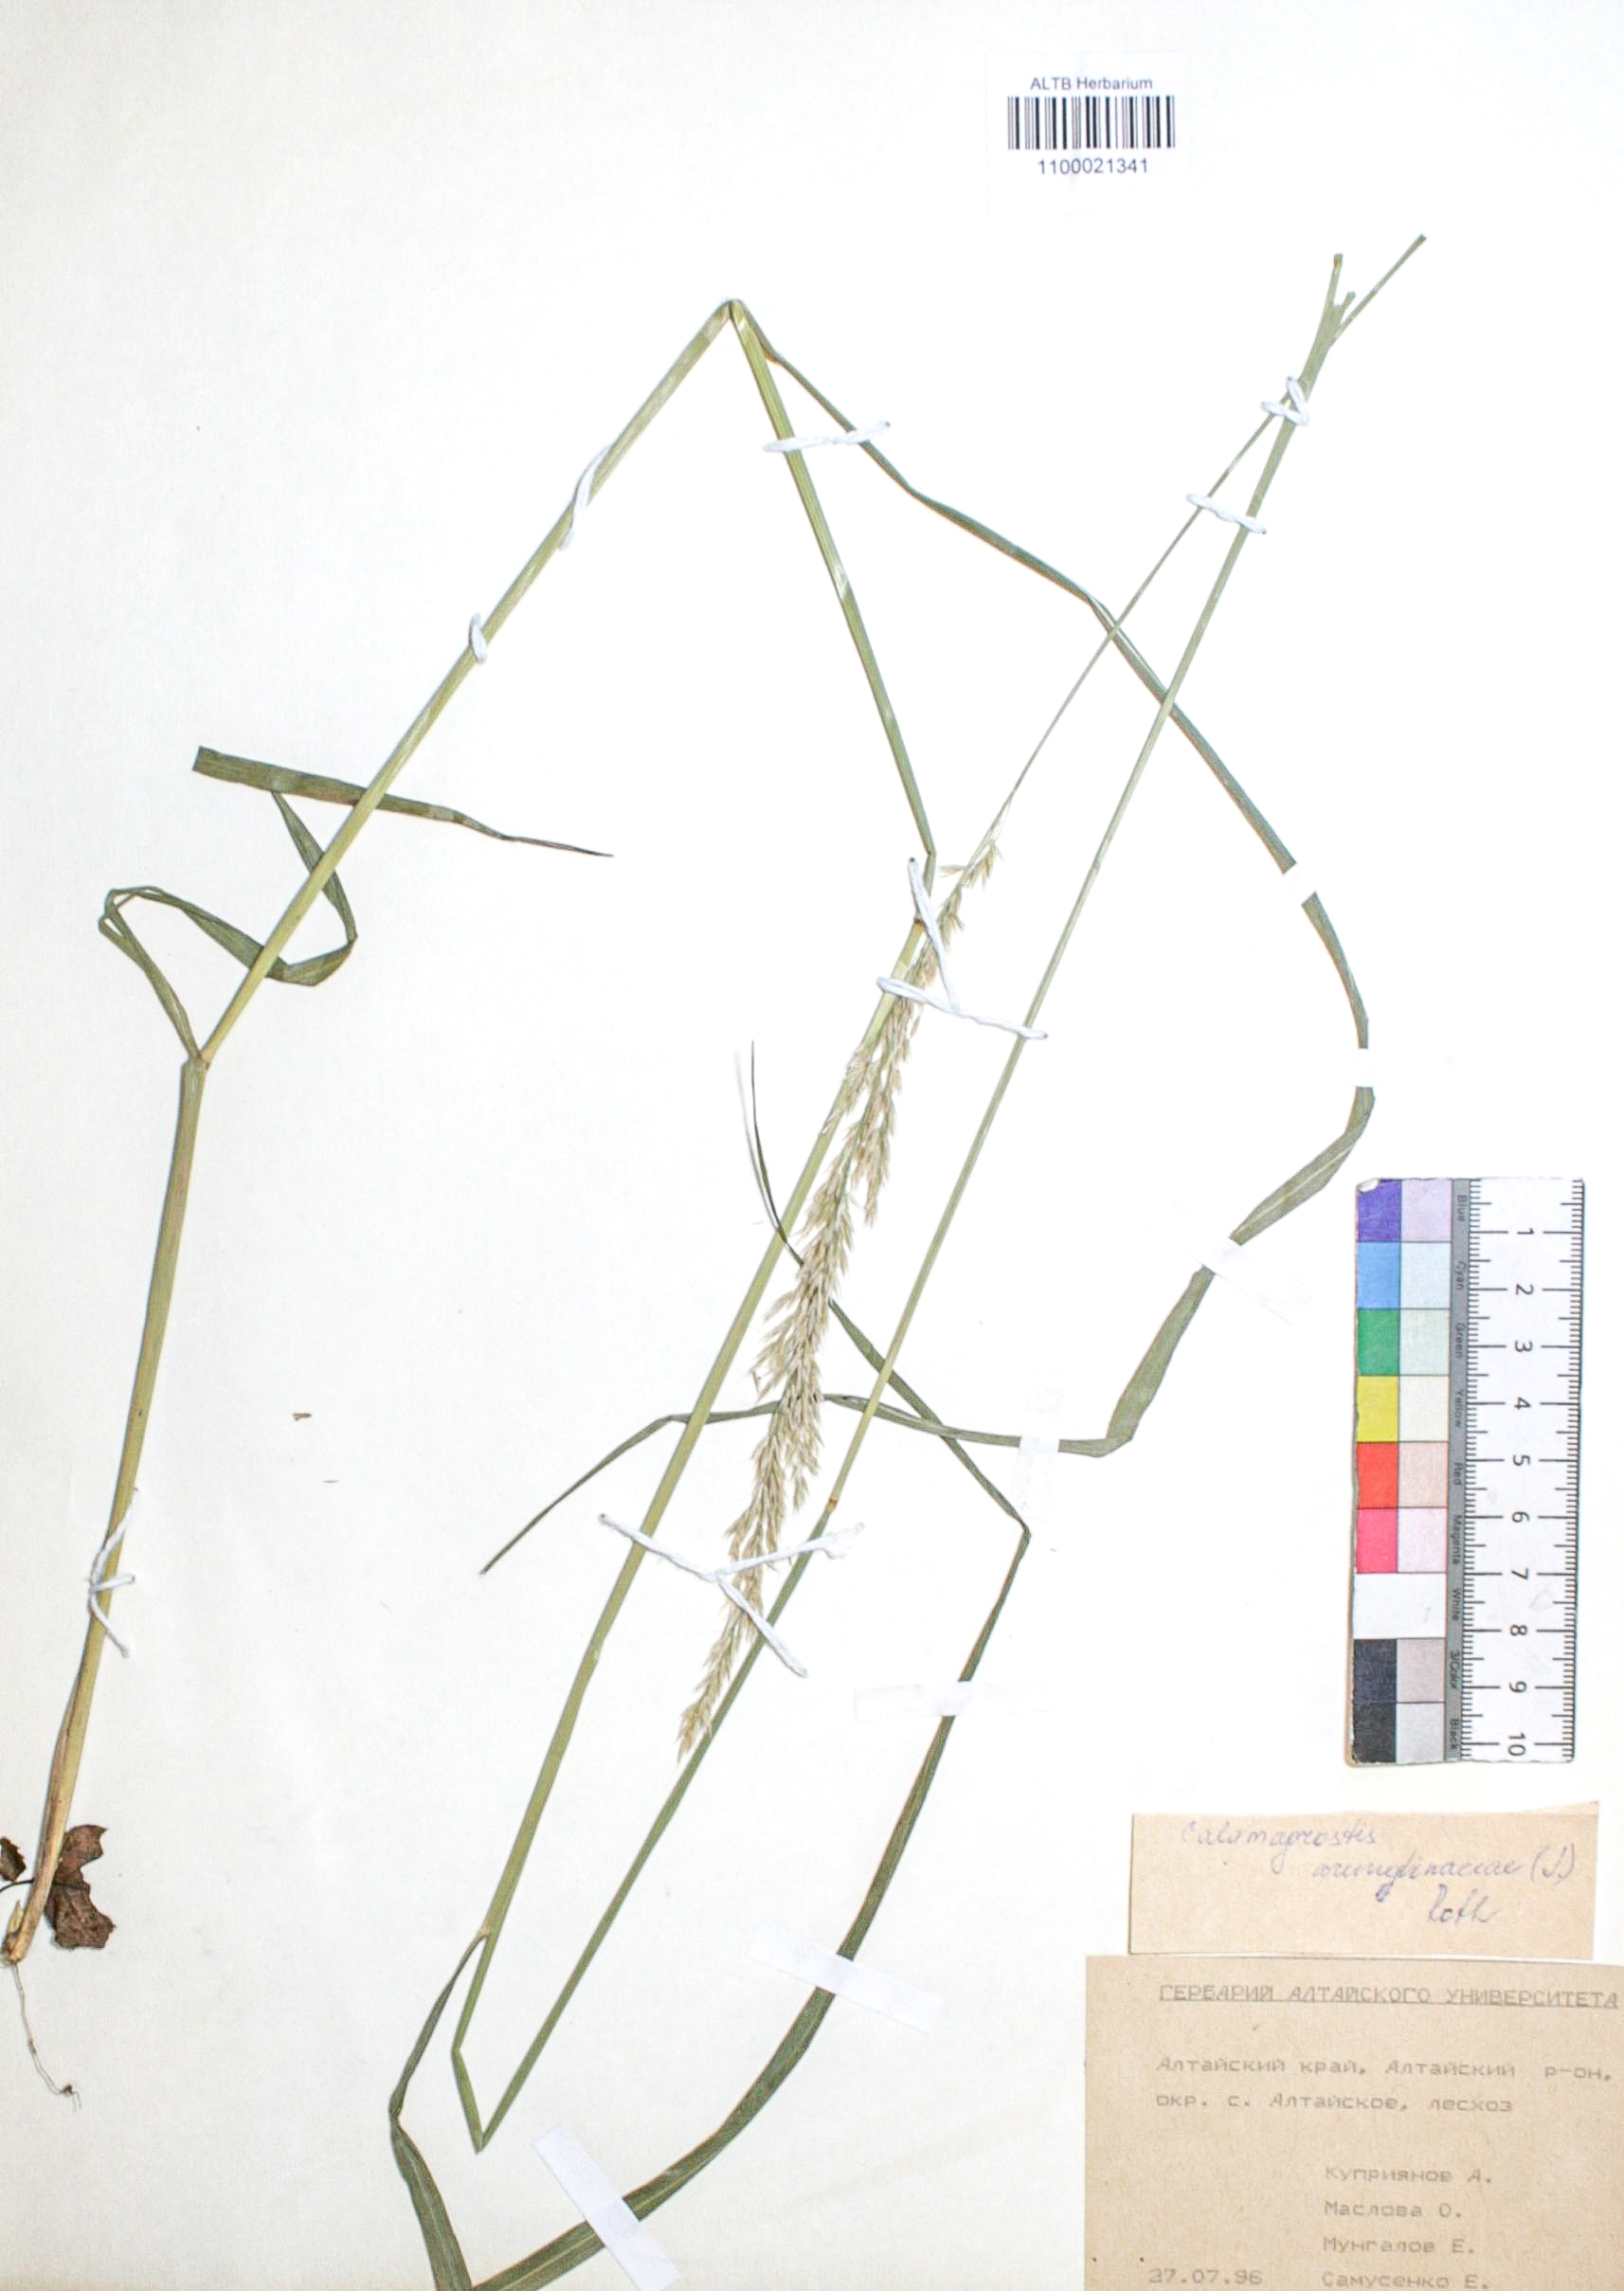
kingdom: Plantae
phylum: Tracheophyta
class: Liliopsida
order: Poales
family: Poaceae
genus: Calamagrostis
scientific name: Calamagrostis arundinacea
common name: Metskastik
